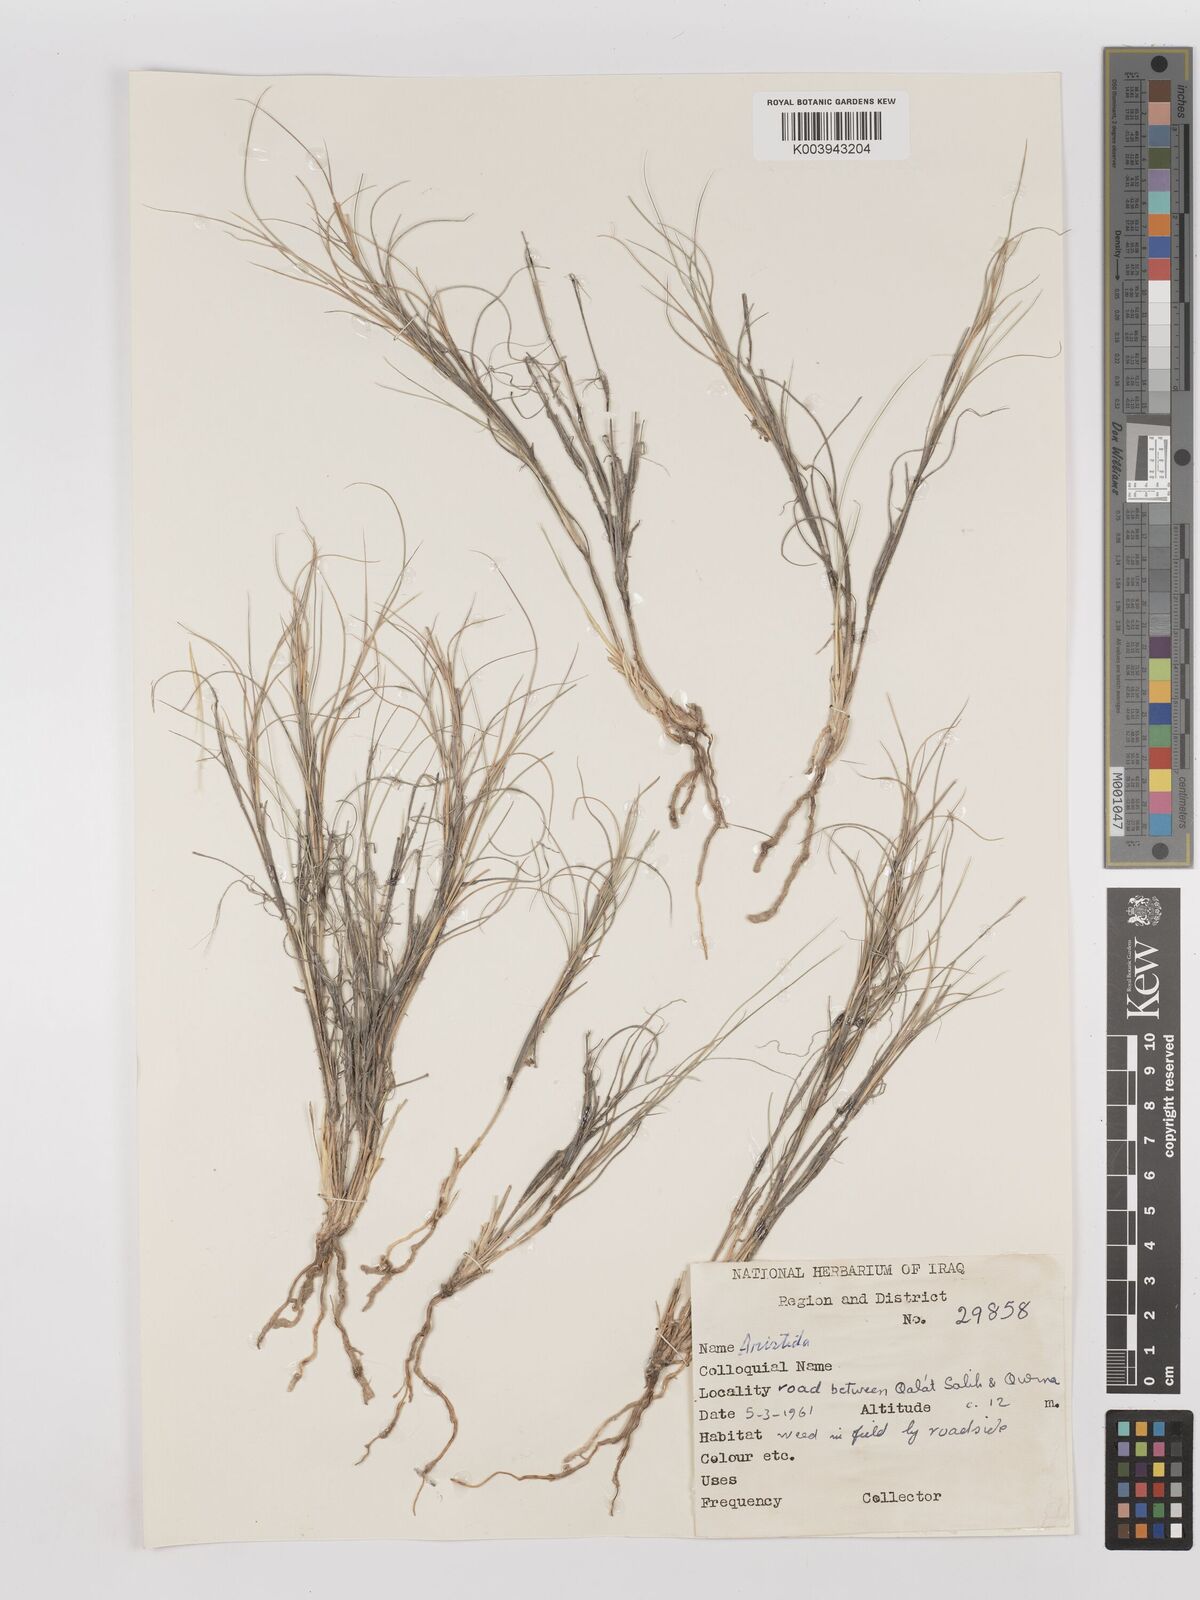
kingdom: Plantae
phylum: Tracheophyta
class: Liliopsida
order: Poales
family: Poaceae
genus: Aristida
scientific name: Aristida
